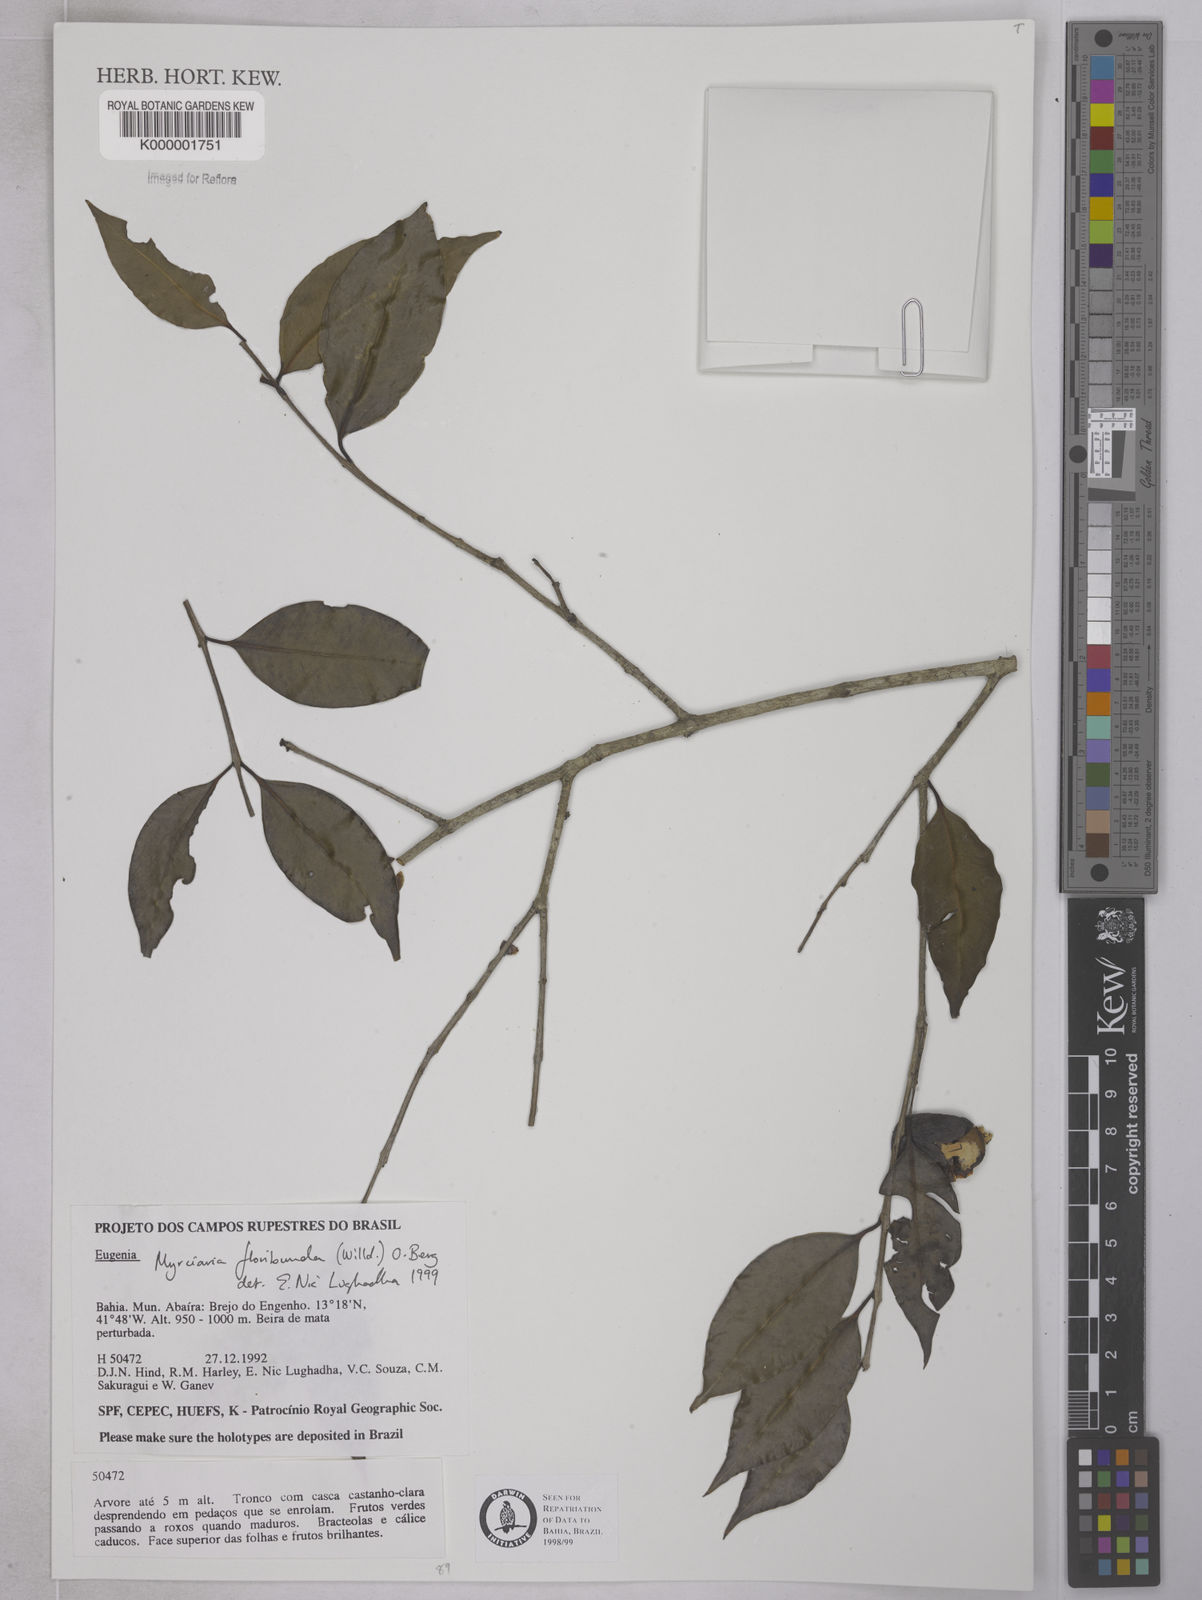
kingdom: Plantae
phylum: Tracheophyta
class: Magnoliopsida
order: Myrtales
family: Myrtaceae
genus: Myrciaria
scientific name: Myrciaria floribunda
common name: Guavaberry
